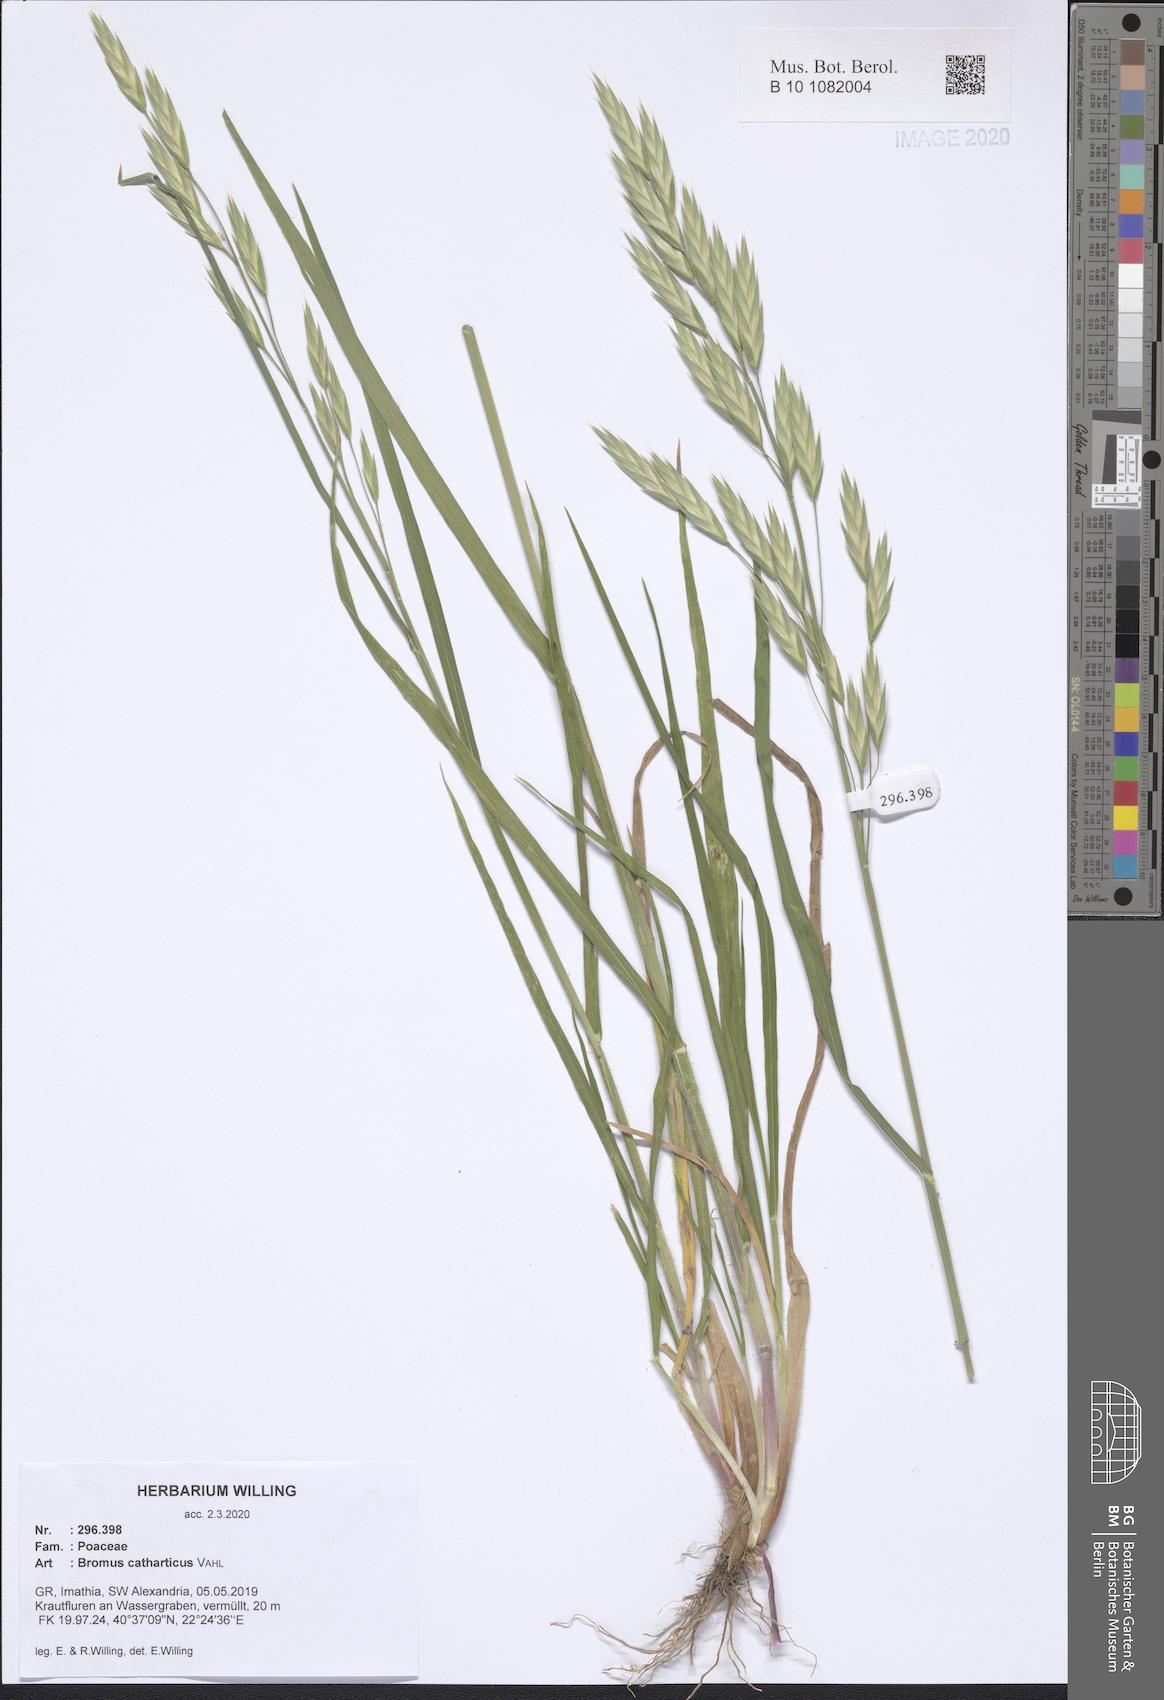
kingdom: Plantae
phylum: Tracheophyta
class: Liliopsida
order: Poales
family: Poaceae
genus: Bromus
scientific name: Bromus catharticus
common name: Rescuegrass
